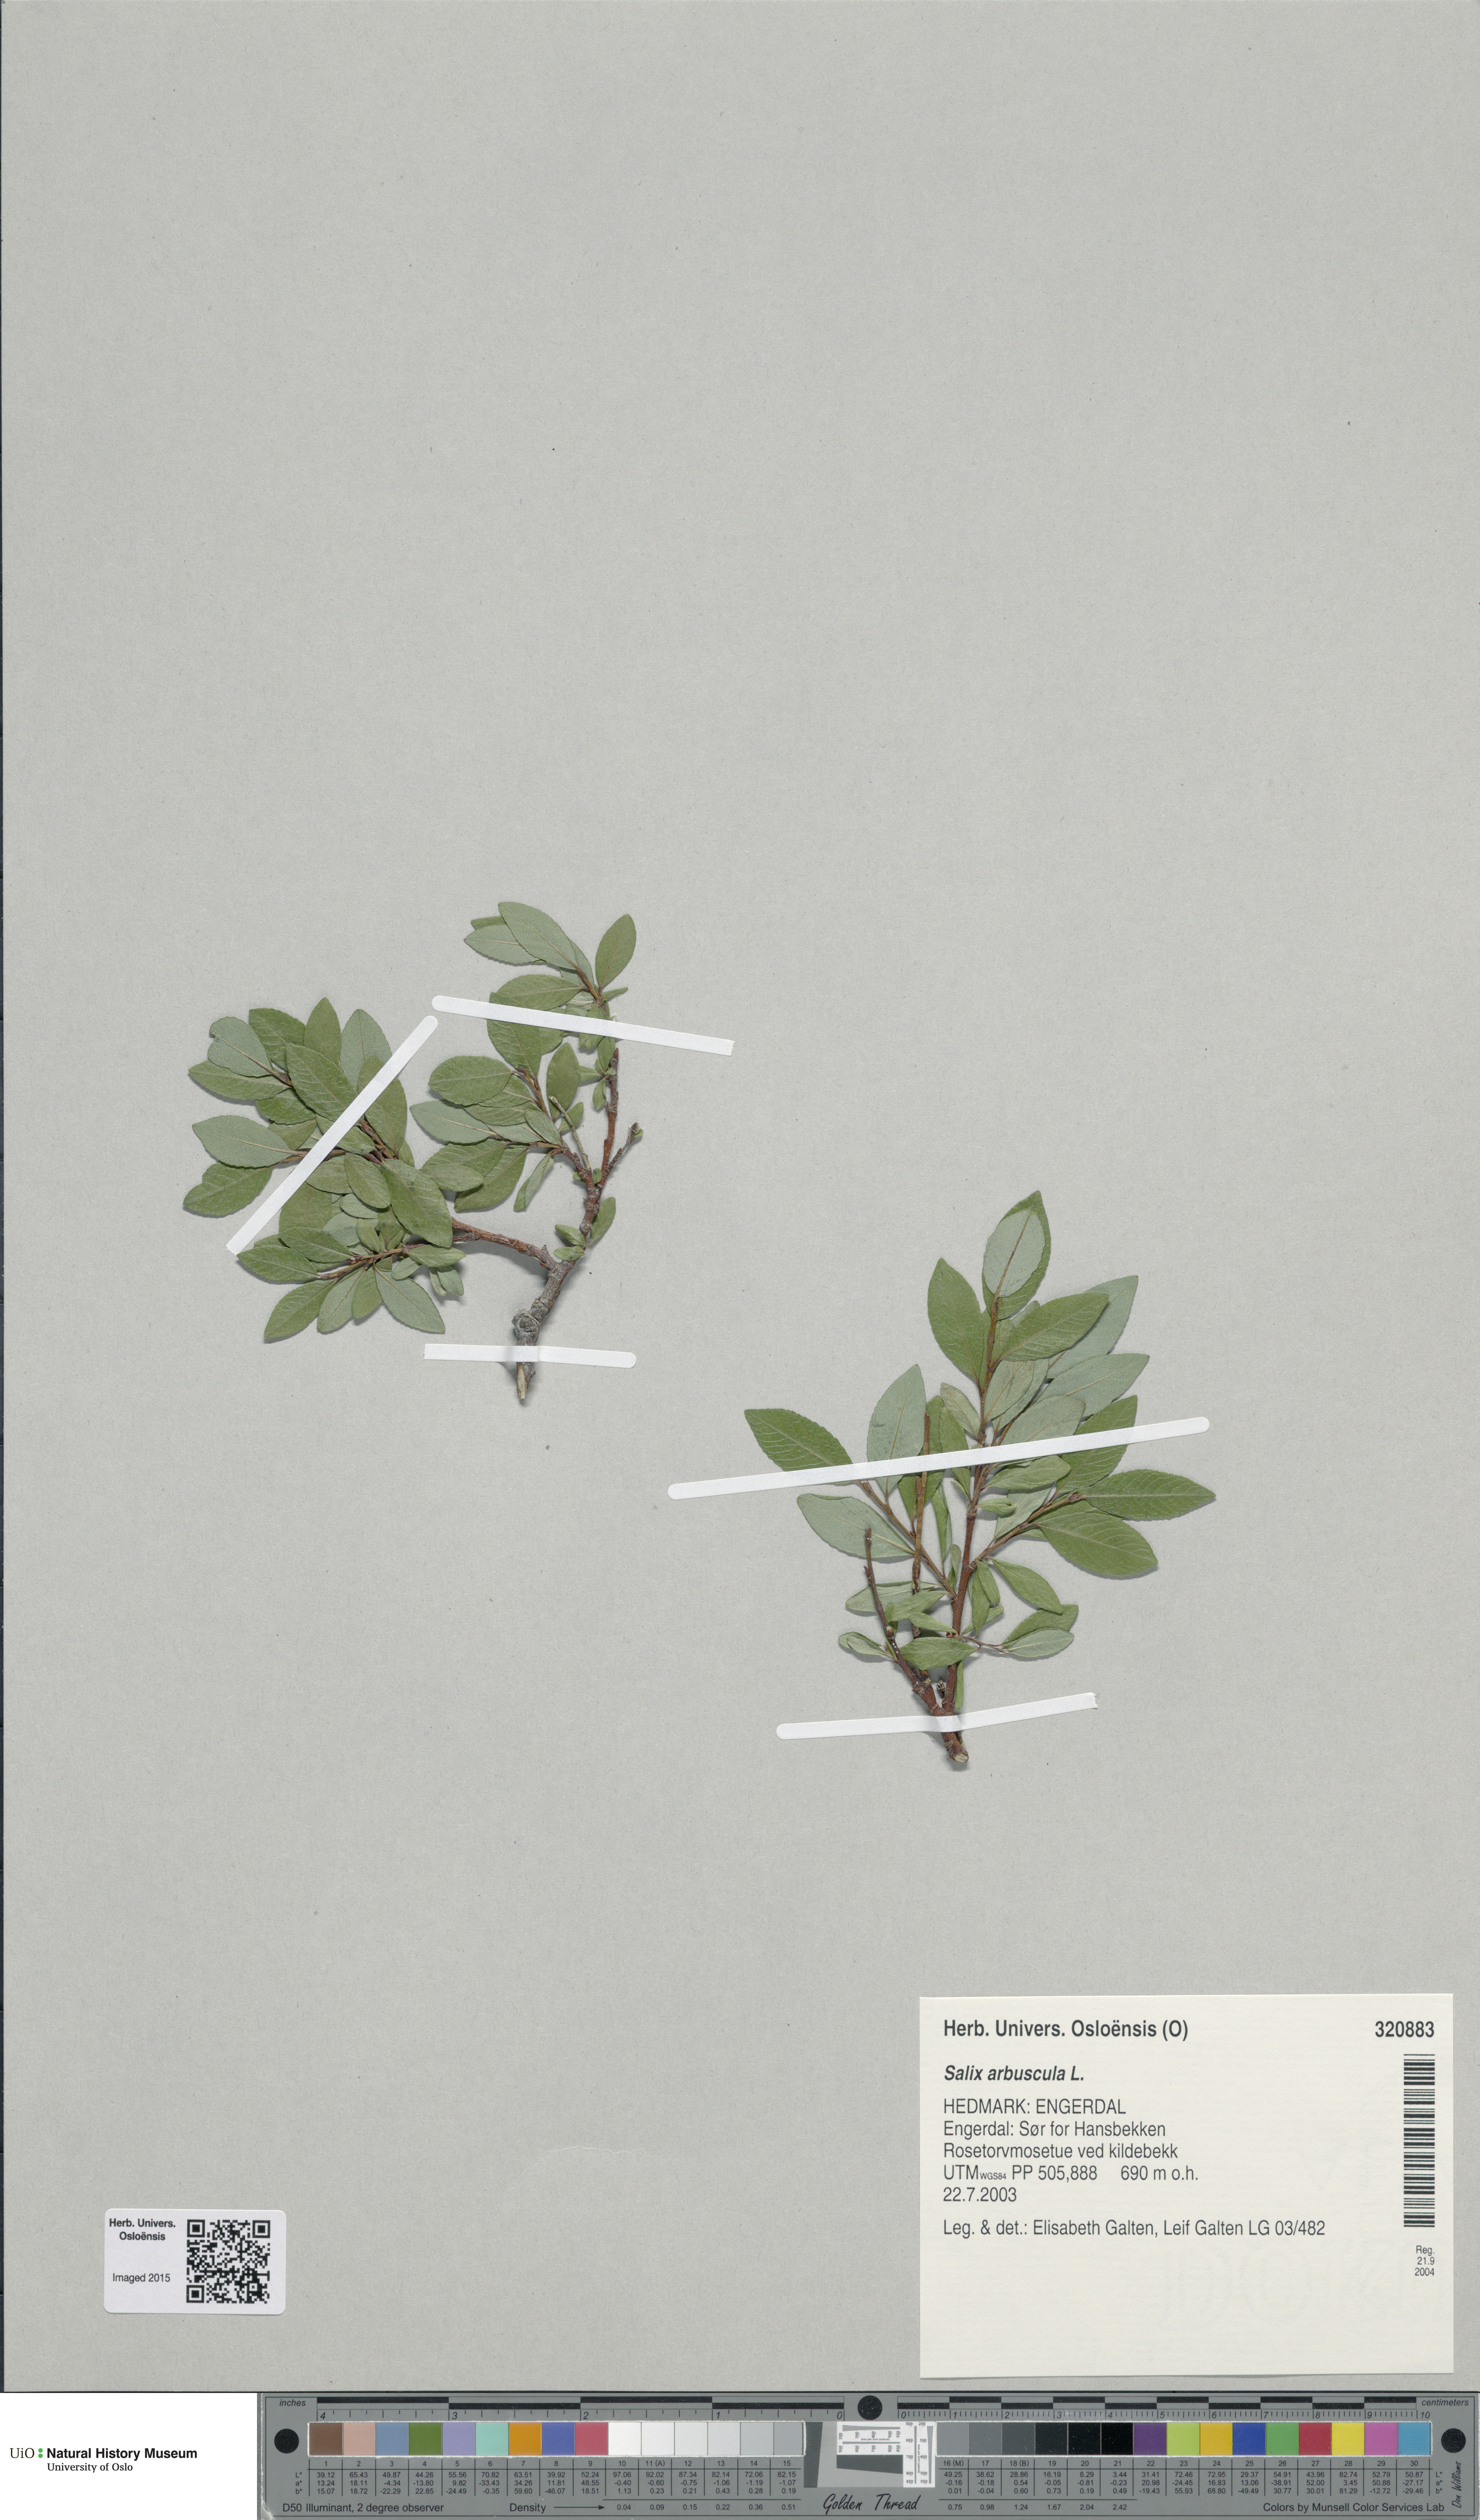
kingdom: Plantae
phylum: Tracheophyta
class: Magnoliopsida
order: Malpighiales
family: Salicaceae
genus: Salix
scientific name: Salix arbuscula
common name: Mountain willow
